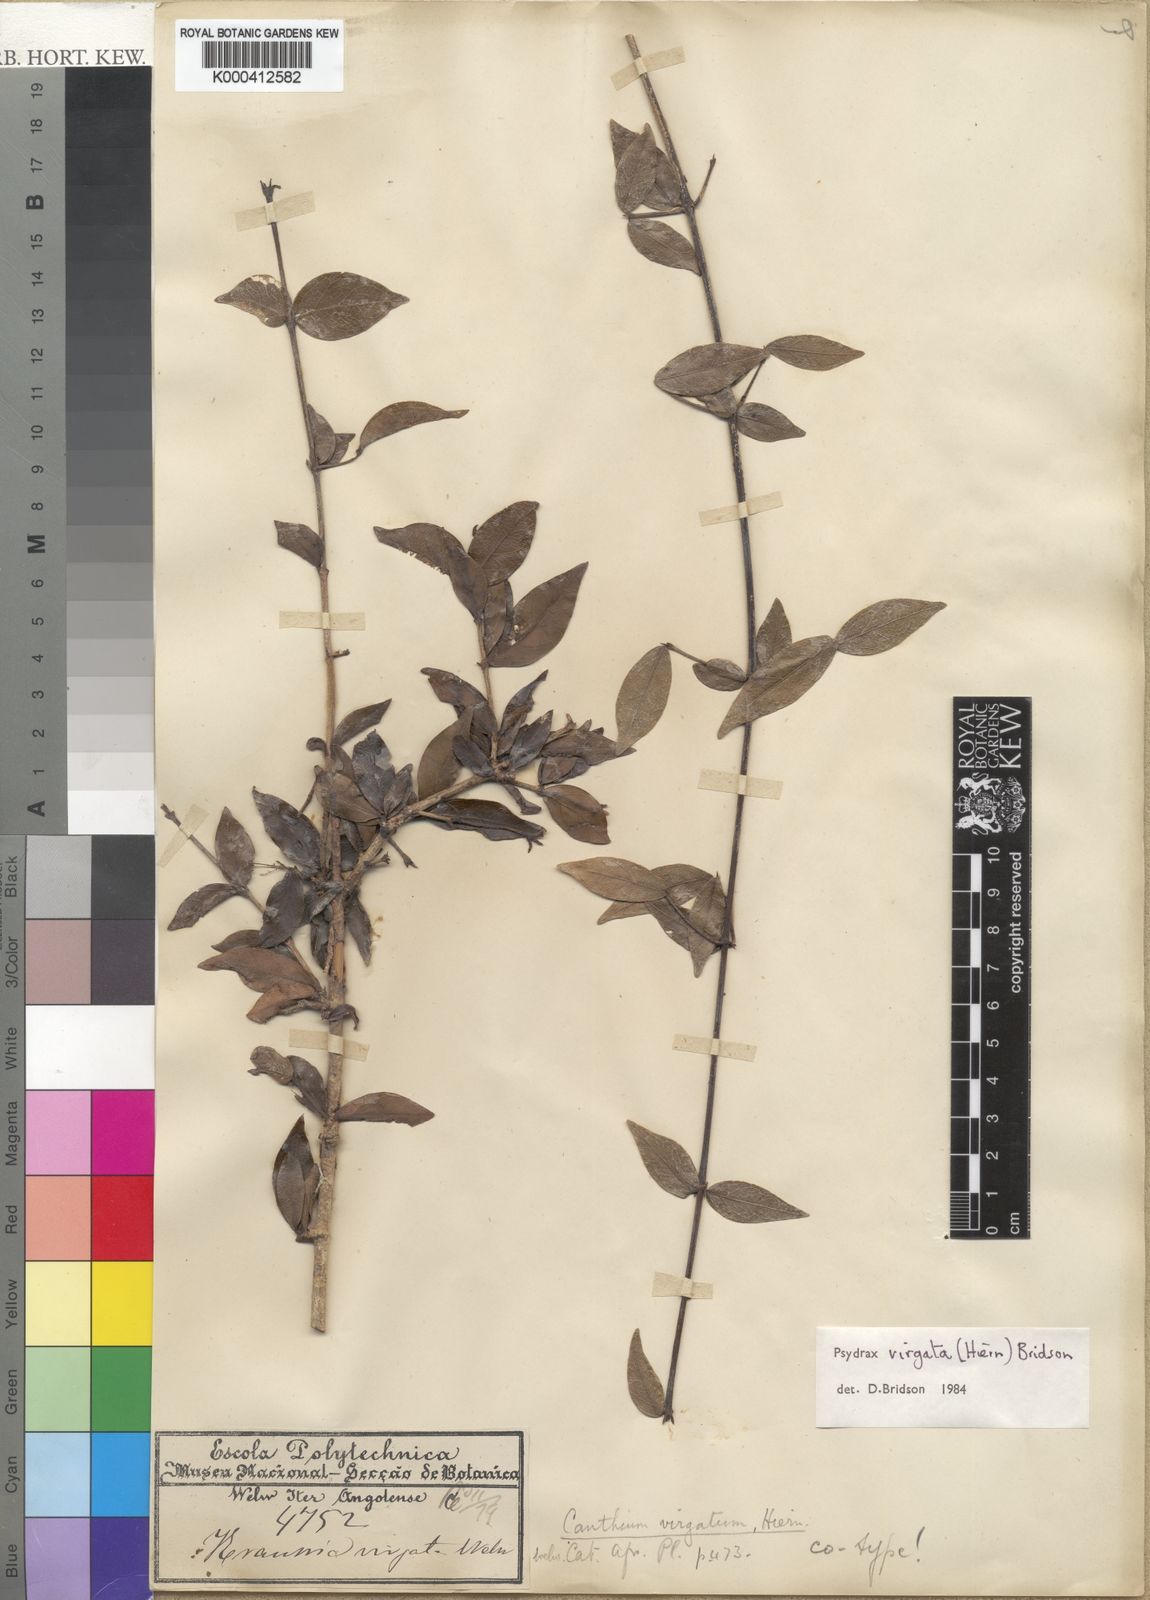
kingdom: Plantae
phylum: Tracheophyta
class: Magnoliopsida
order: Gentianales
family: Rubiaceae
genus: Psydrax
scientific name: Psydrax virgatus
